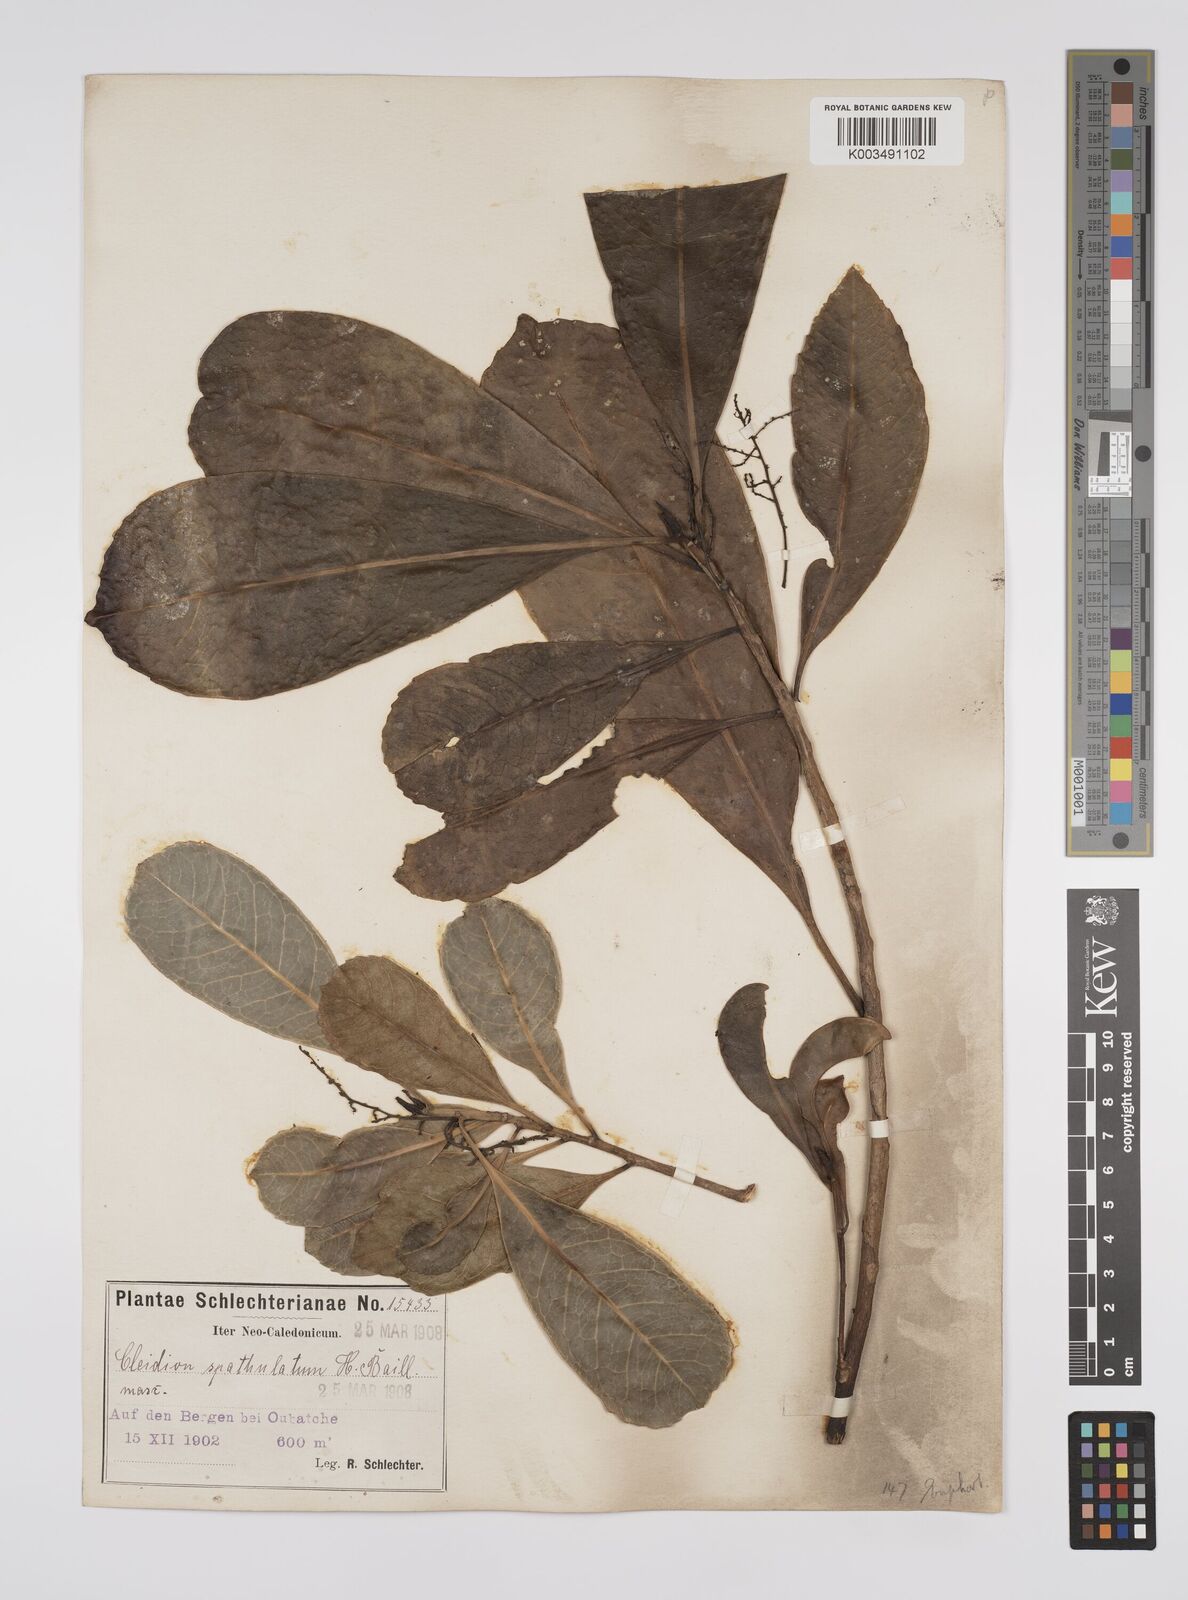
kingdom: Plantae
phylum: Tracheophyta
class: Magnoliopsida
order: Malpighiales
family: Euphorbiaceae
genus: Cleidion
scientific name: Cleidion spathulatum
